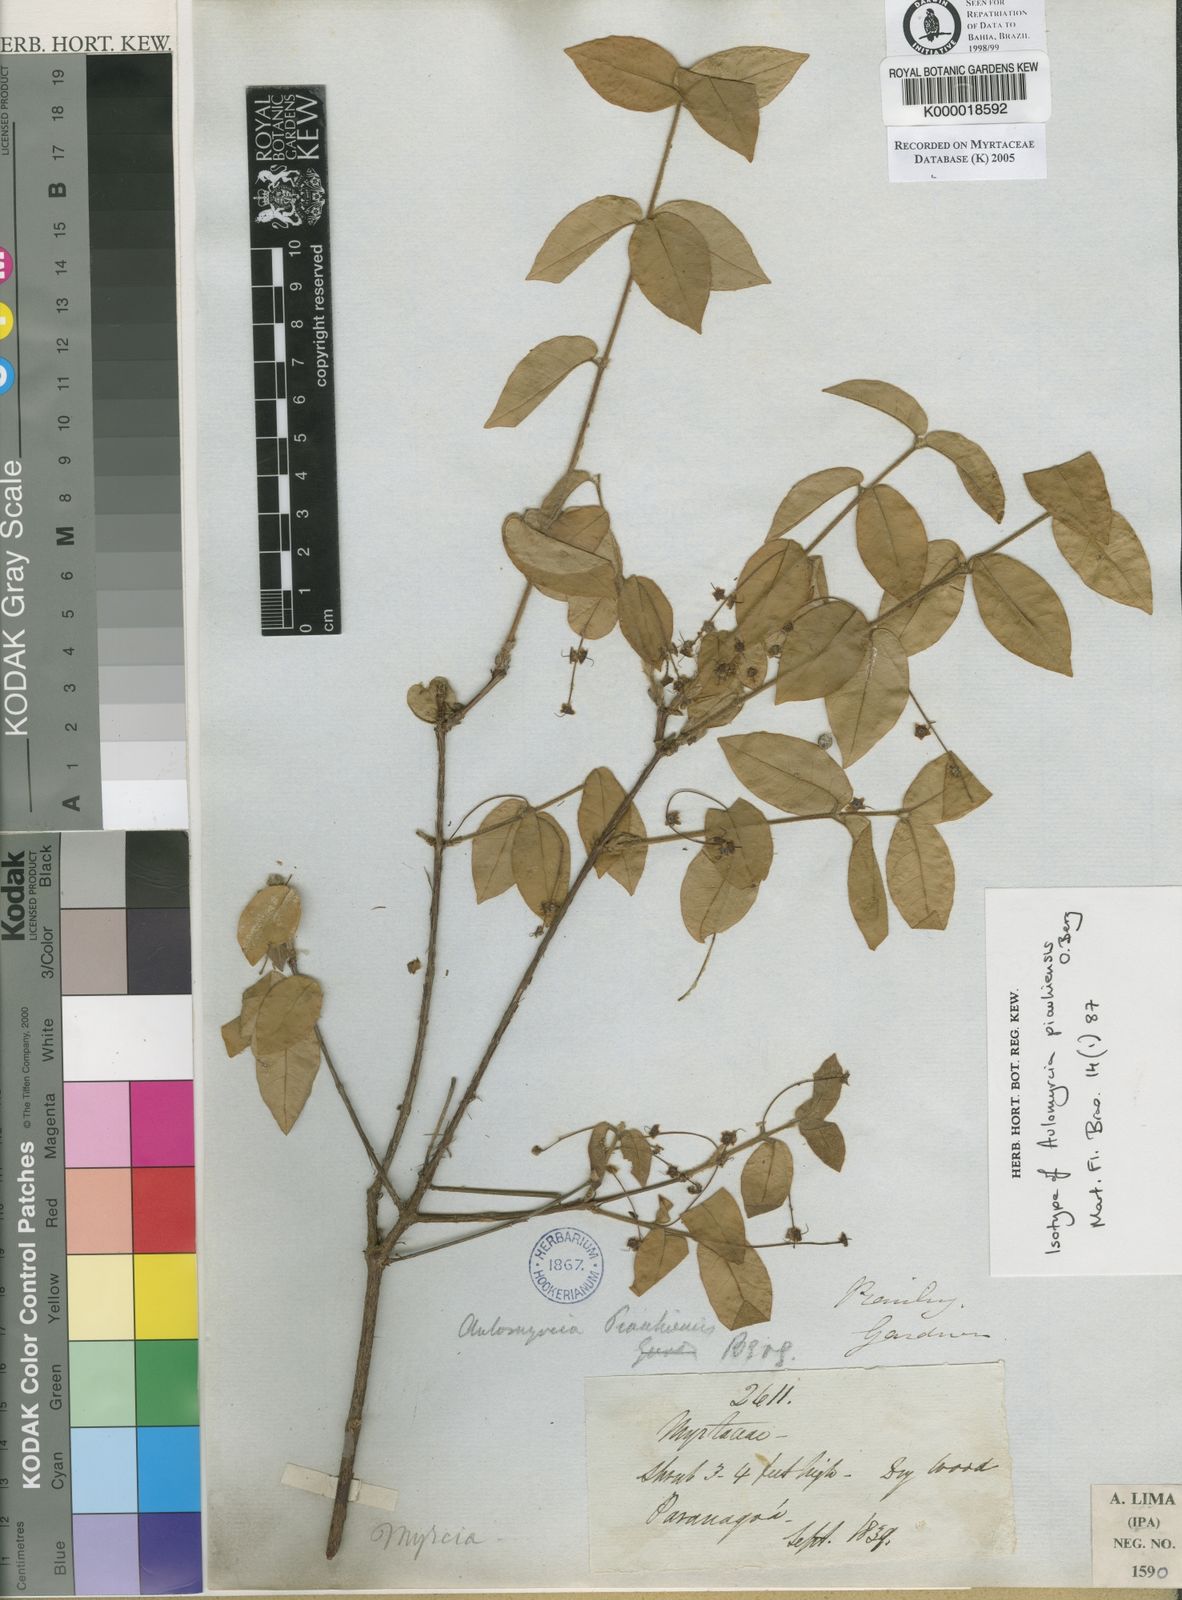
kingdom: Plantae
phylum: Tracheophyta
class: Magnoliopsida
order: Myrtales
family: Myrtaceae
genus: Myrcia
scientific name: Myrcia tomentosa
